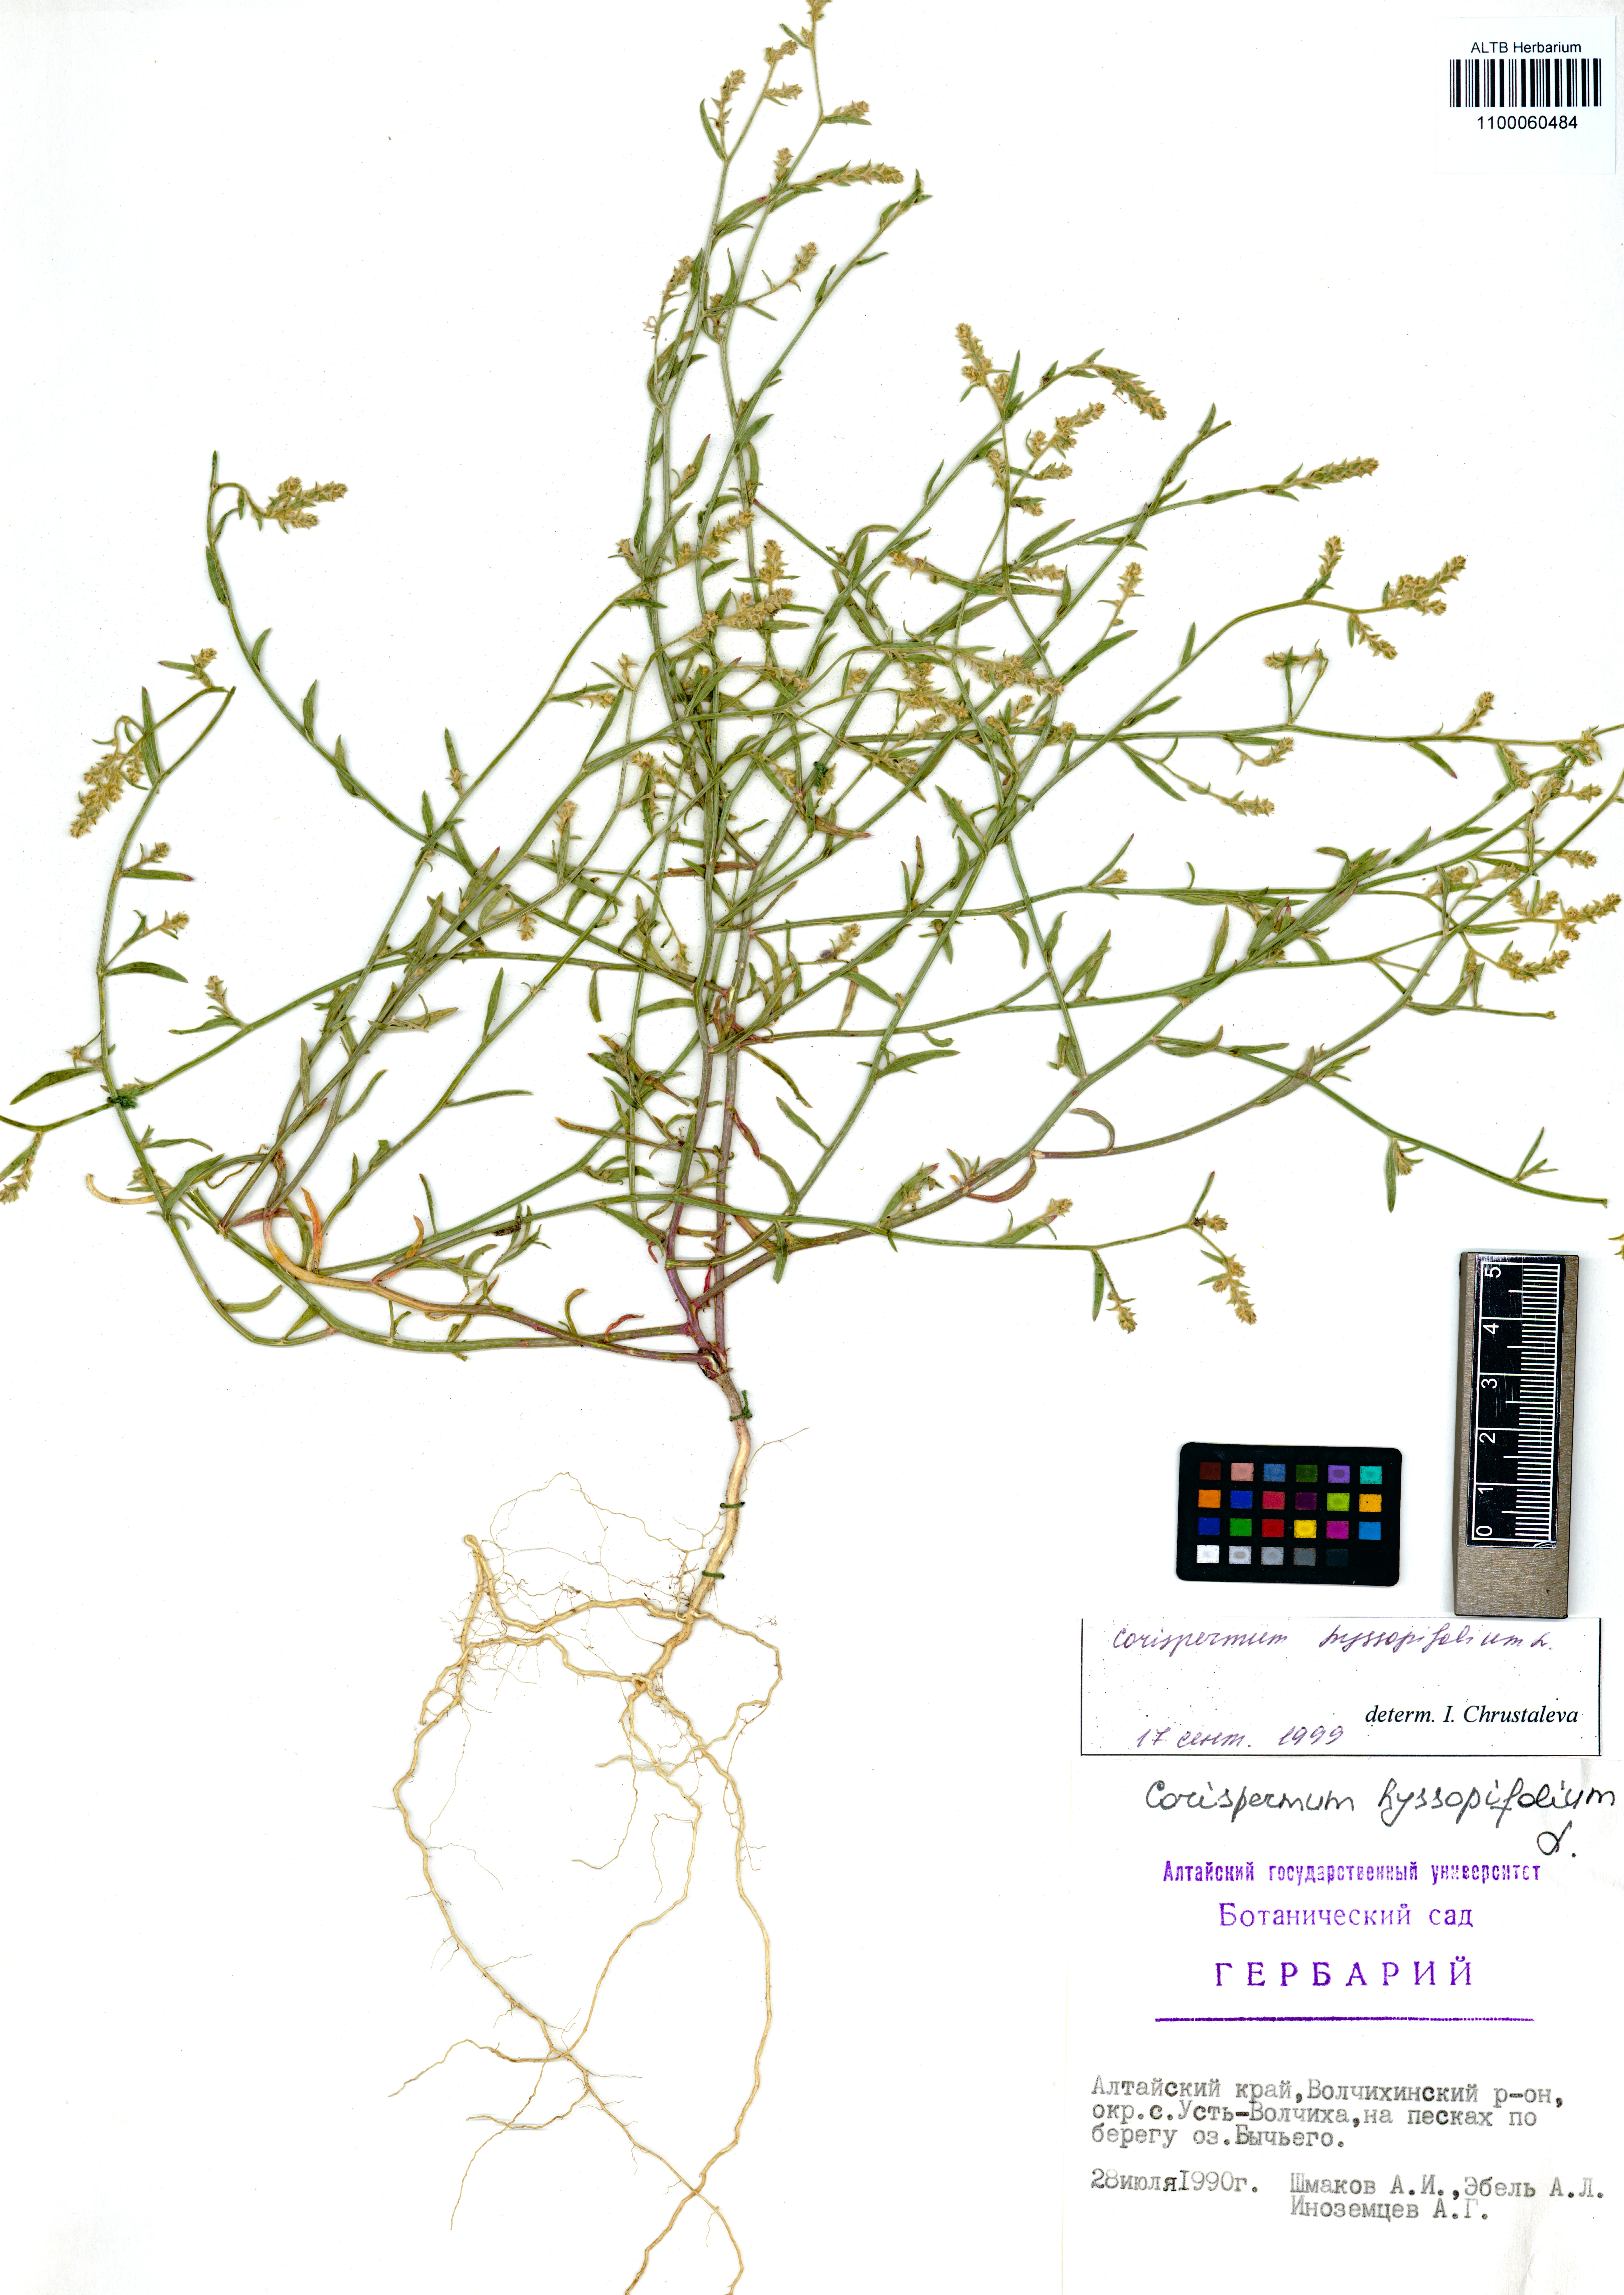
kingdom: Plantae
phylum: Tracheophyta
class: Magnoliopsida
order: Caryophyllales
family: Amaranthaceae
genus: Corispermum
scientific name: Corispermum hyssopifolium
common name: Bugseed
